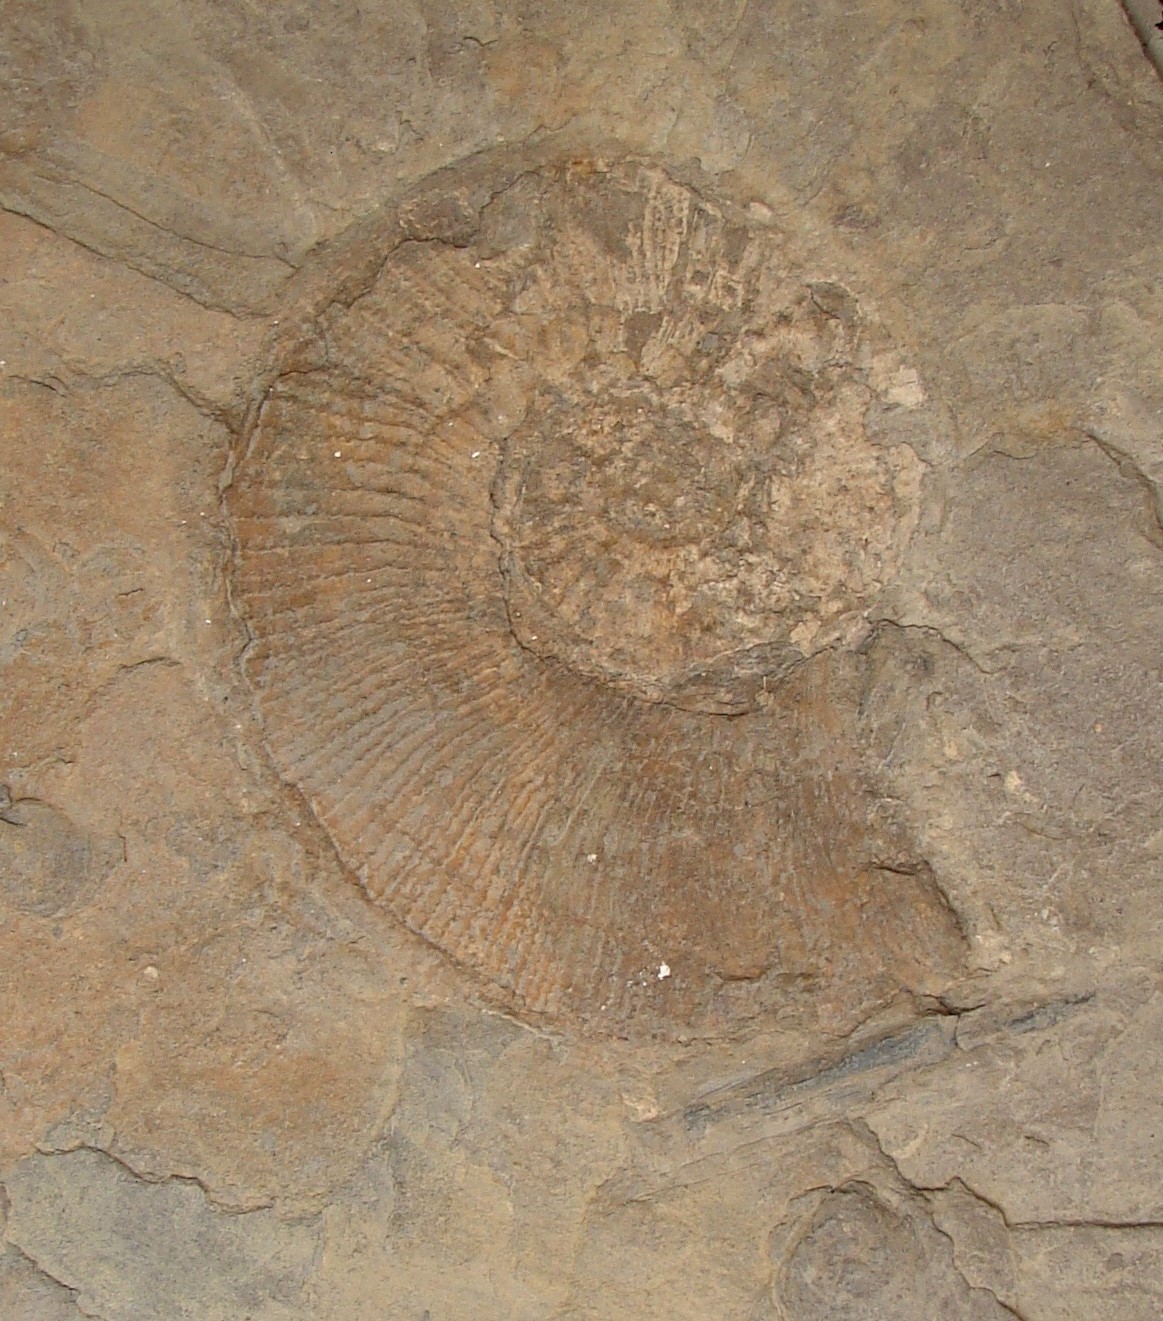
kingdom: Animalia
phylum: Mollusca
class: Cephalopoda
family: Lytoceratidae
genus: Lytoceras
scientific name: Lytoceras Ammonites siemensi
